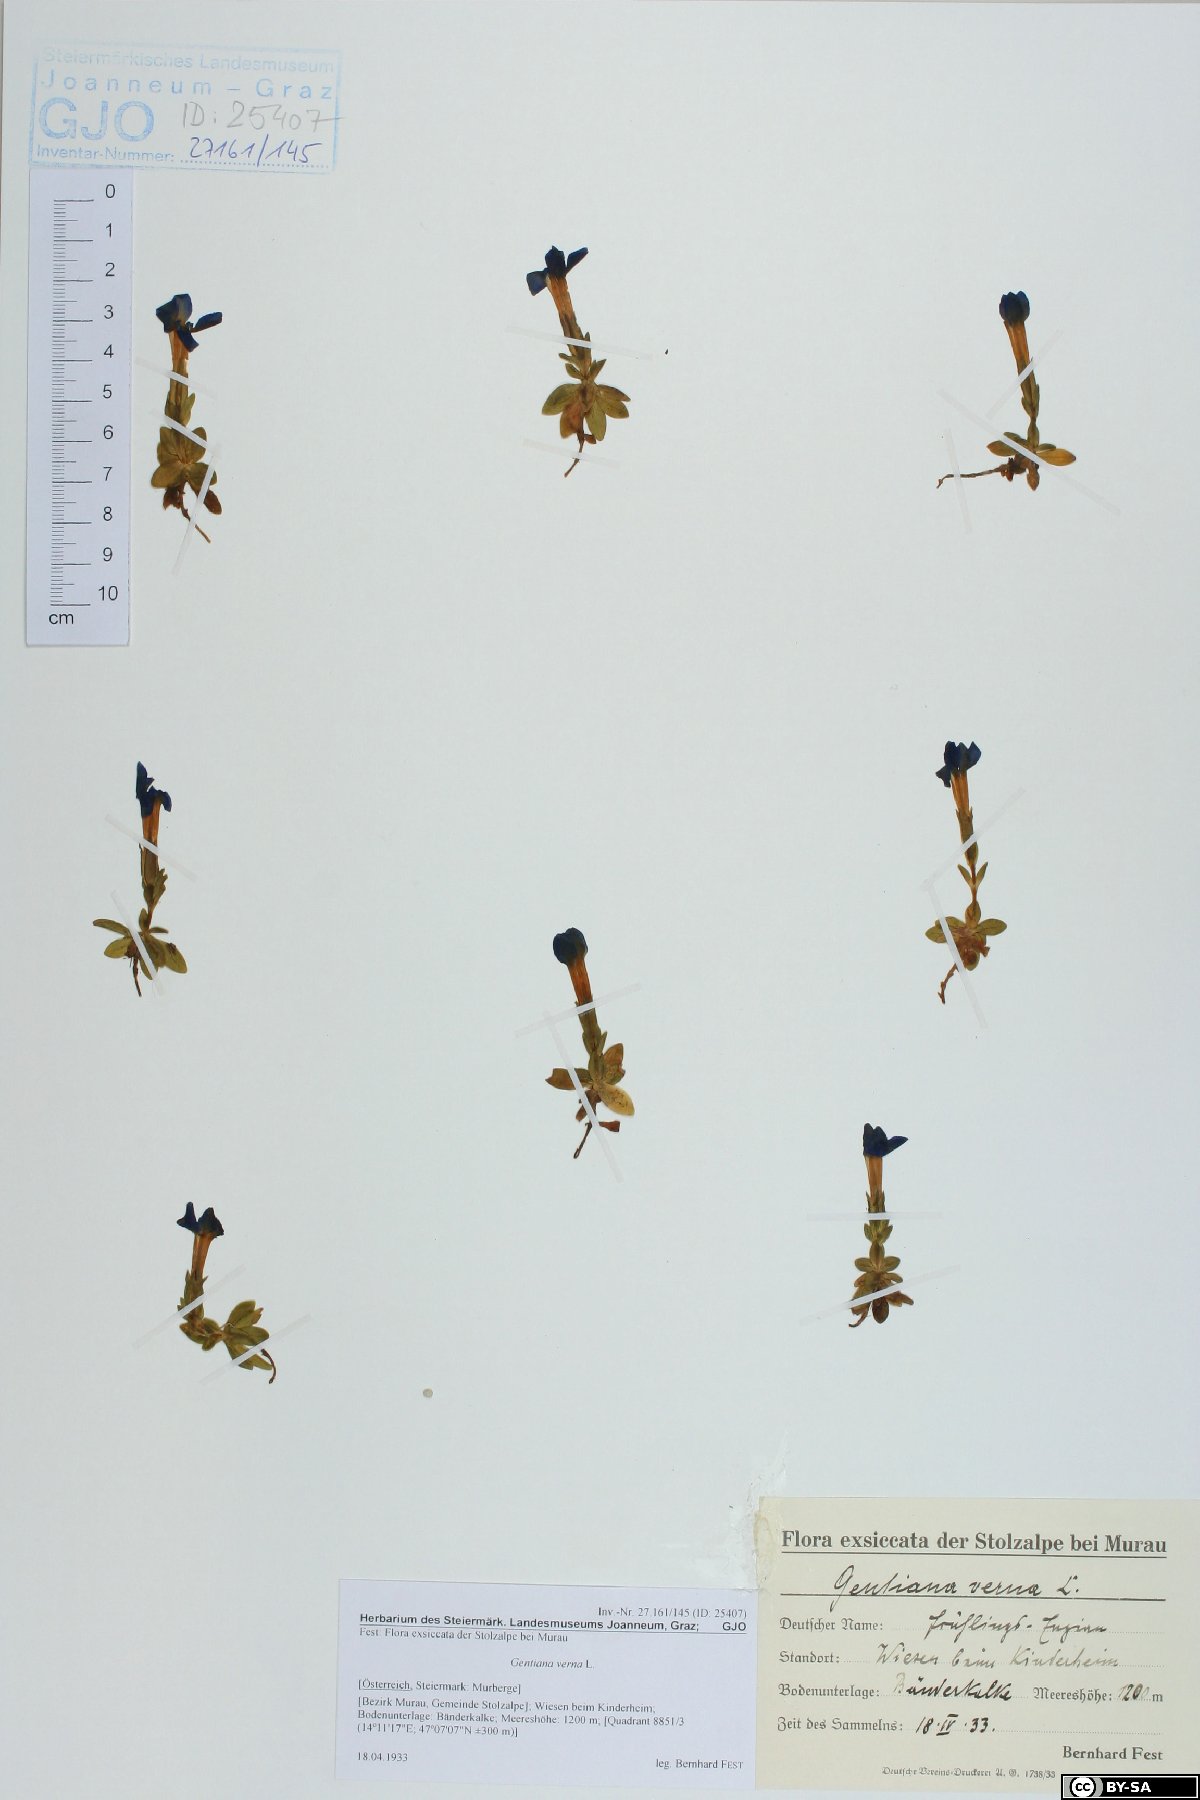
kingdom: Plantae
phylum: Tracheophyta
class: Magnoliopsida
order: Gentianales
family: Gentianaceae
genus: Gentiana
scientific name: Gentiana verna
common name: Spring gentian
